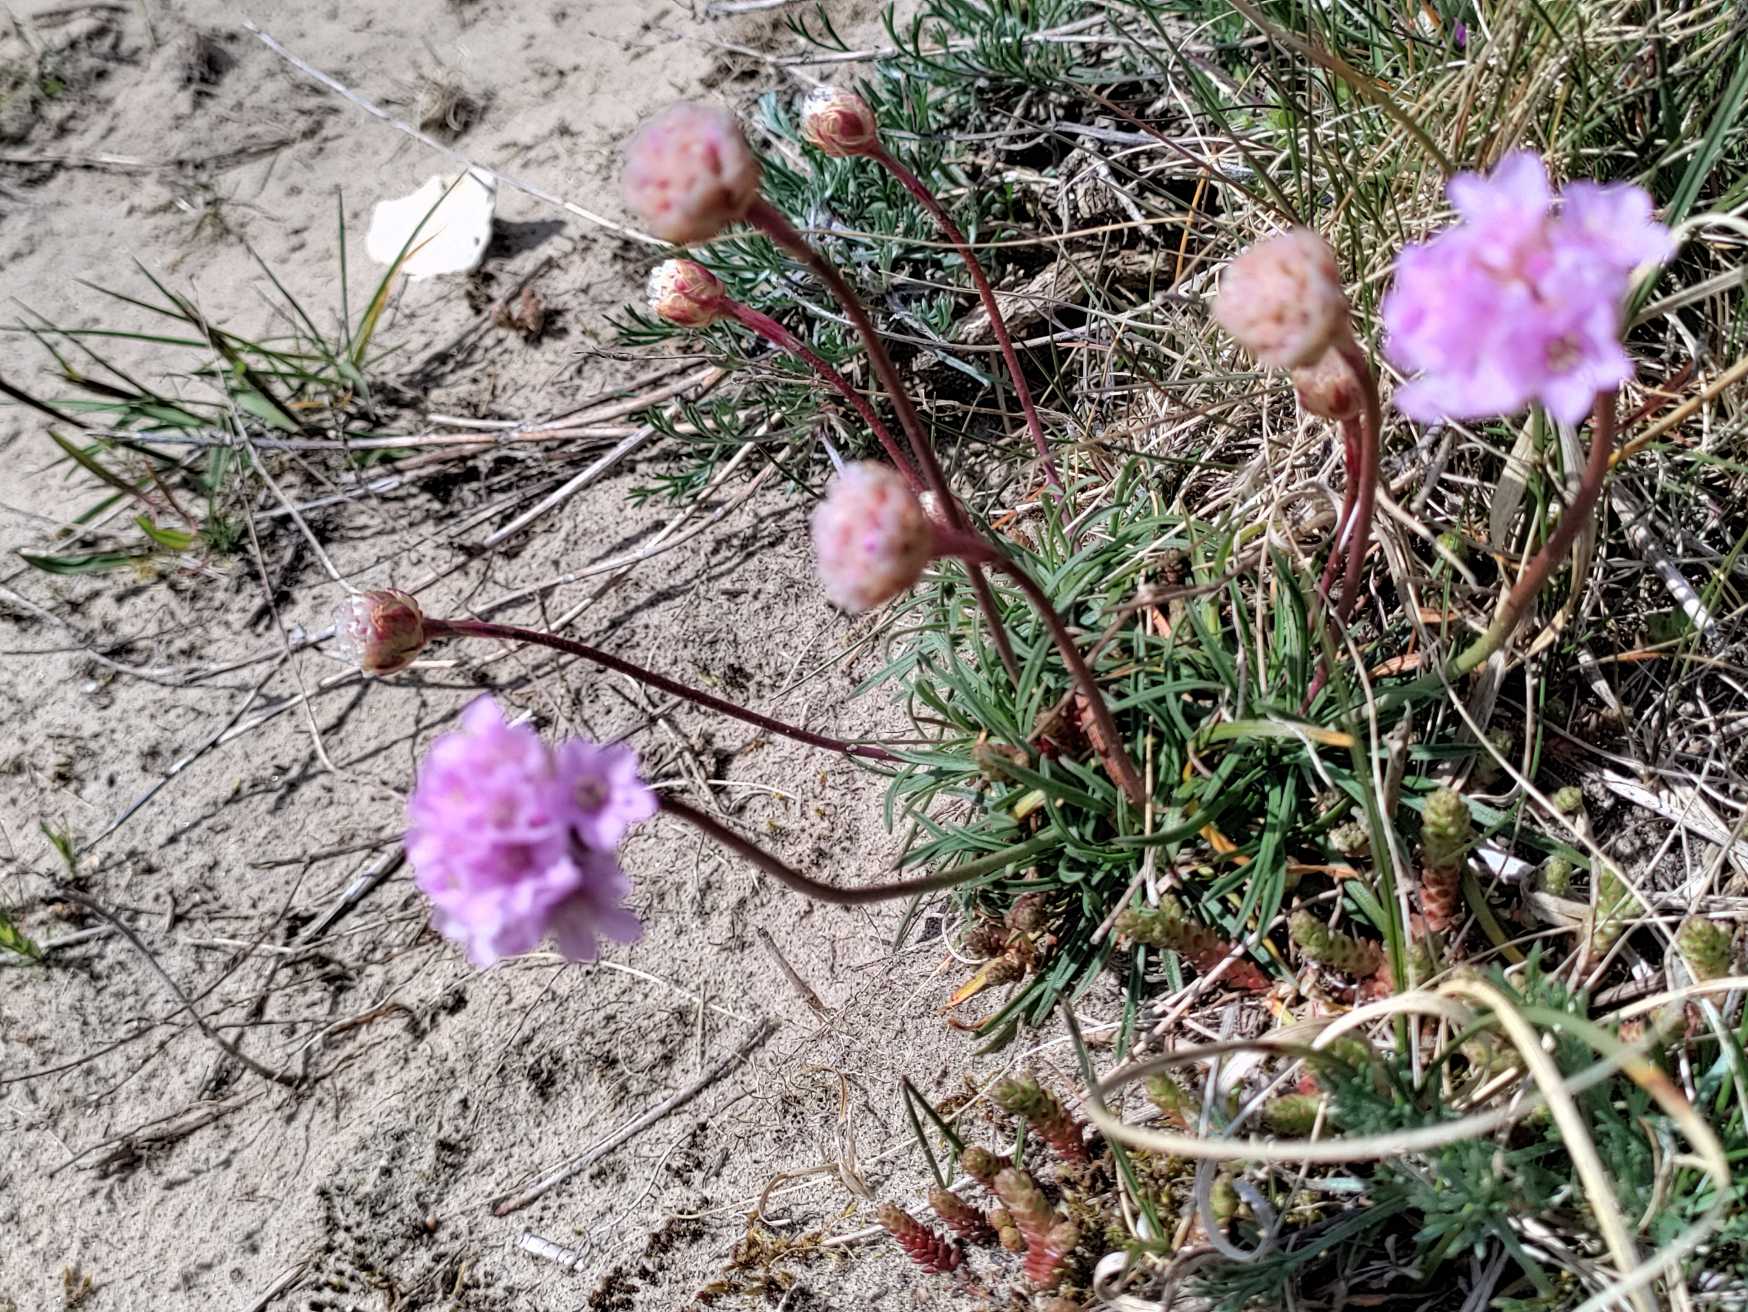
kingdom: Plantae
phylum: Tracheophyta
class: Magnoliopsida
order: Caryophyllales
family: Plumbaginaceae
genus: Armeria
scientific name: Armeria maritima
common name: Engelskgræs
